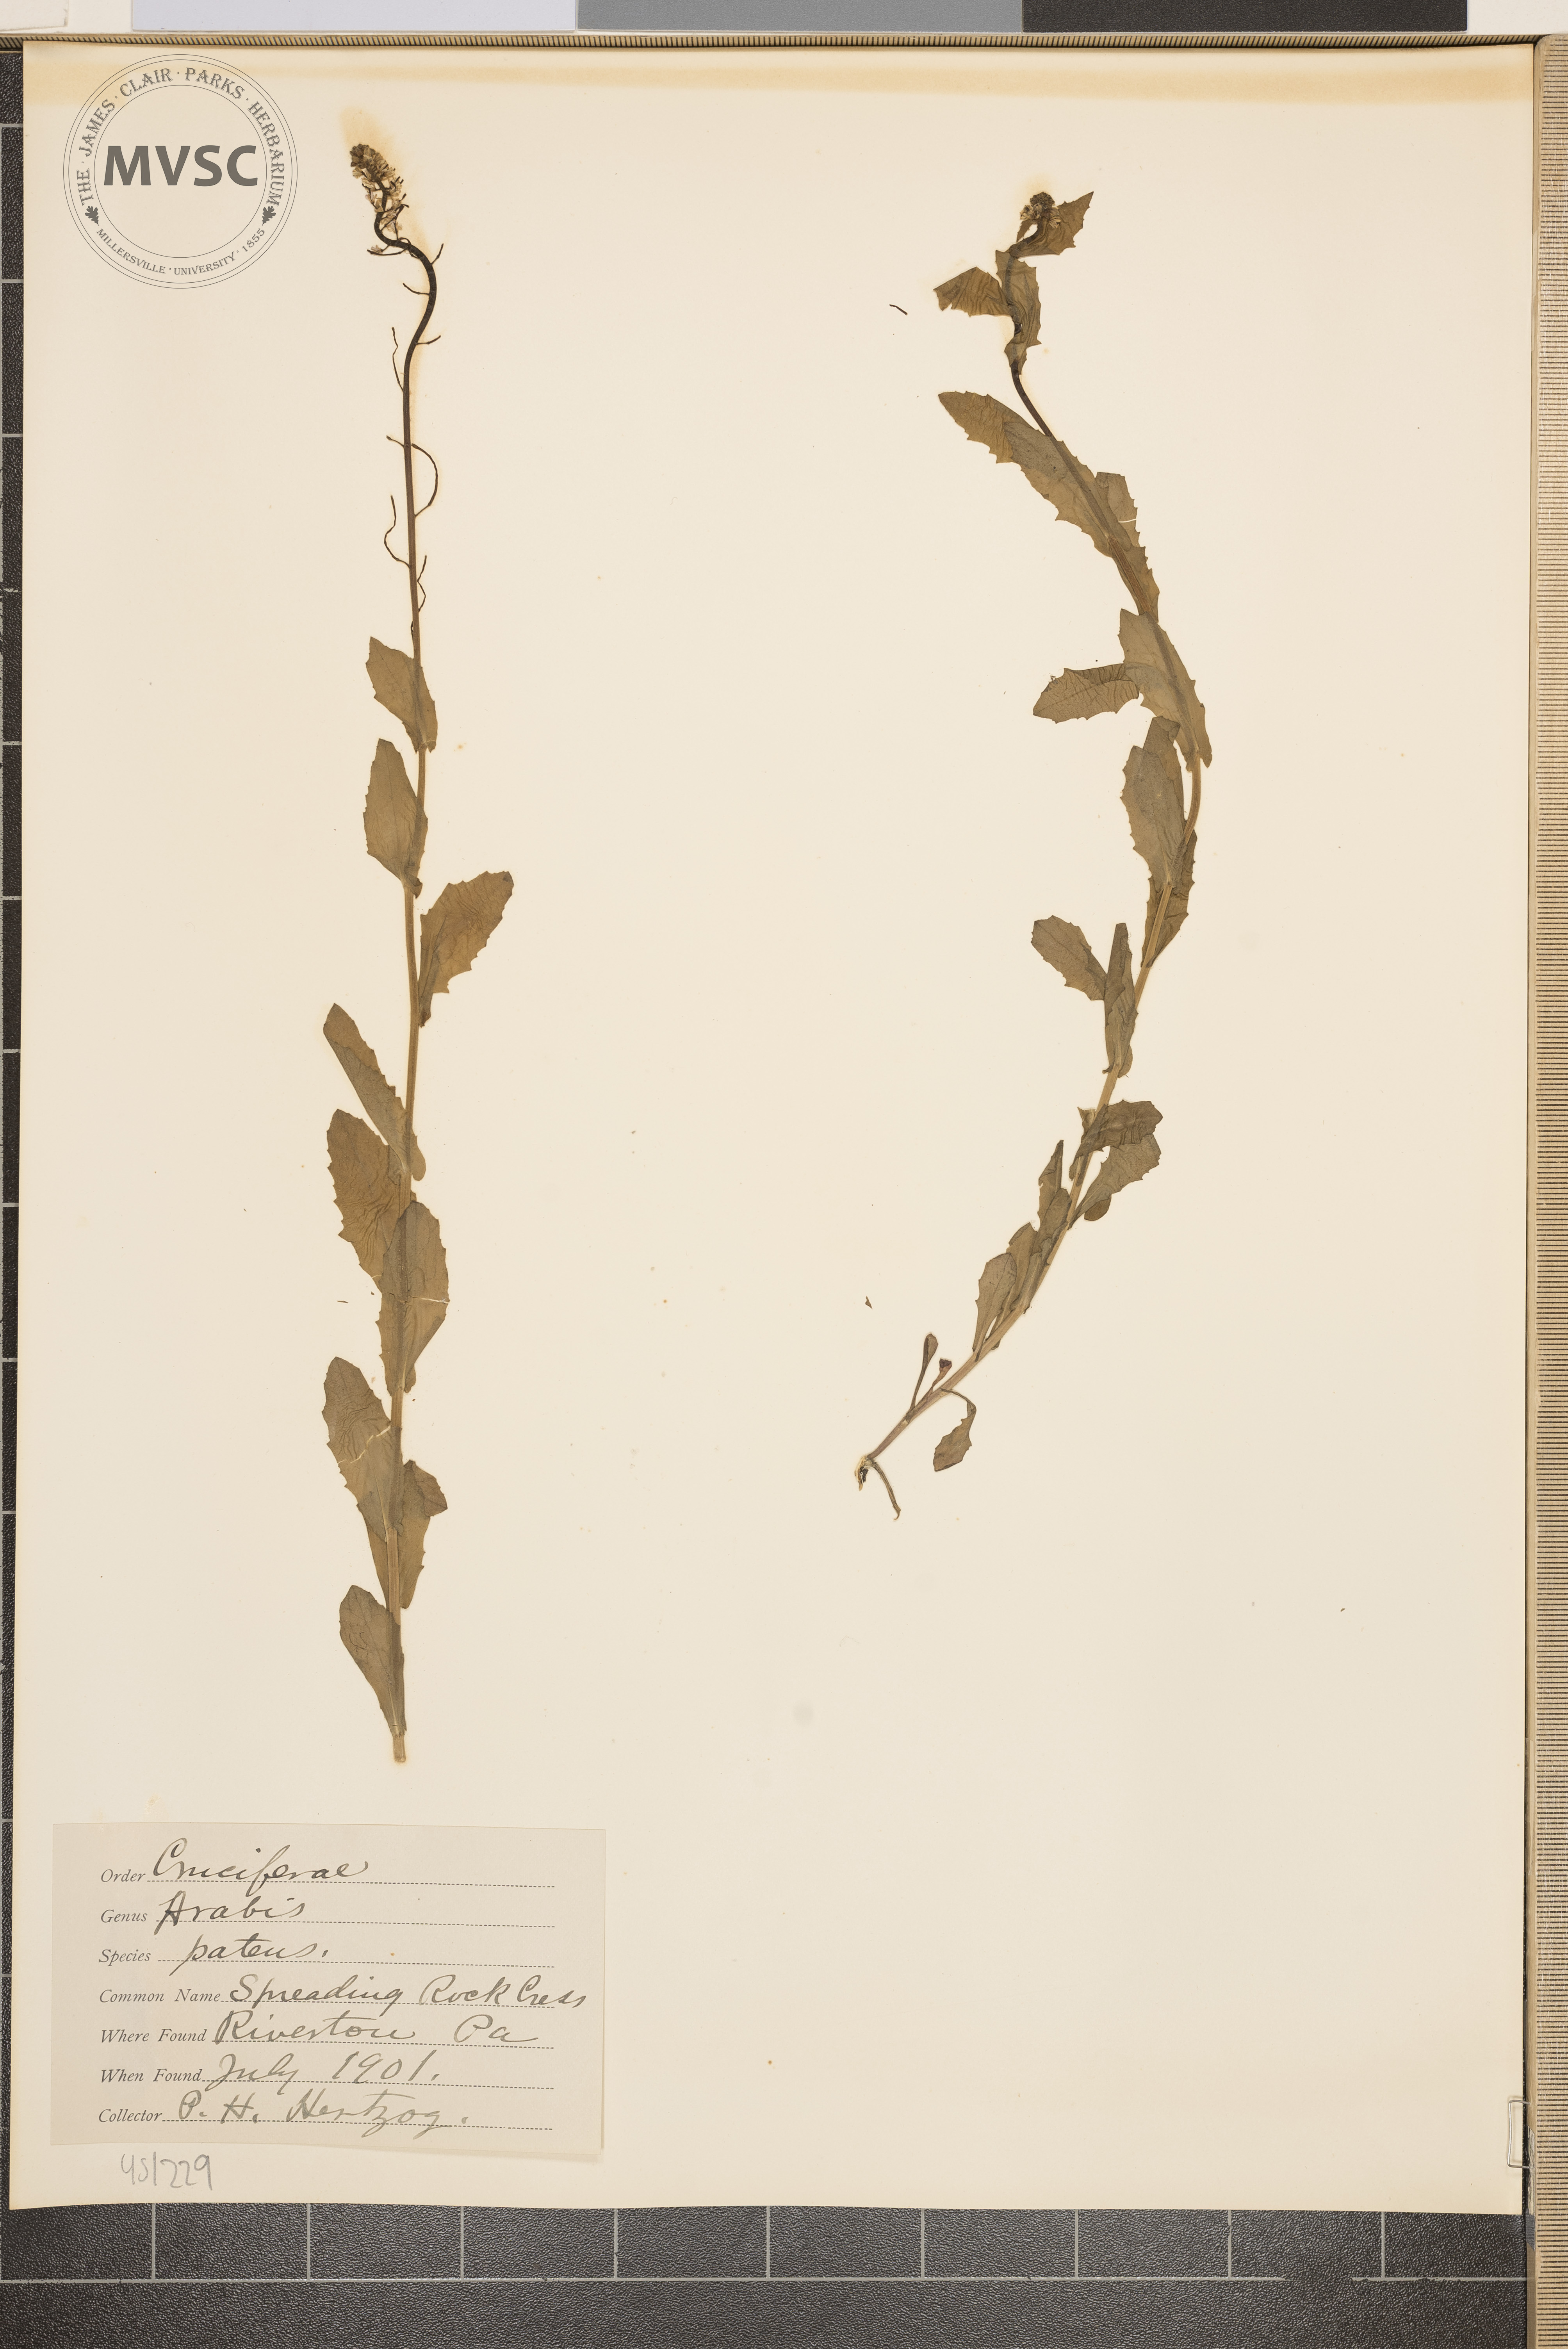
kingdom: Plantae
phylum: Tracheophyta
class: Magnoliopsida
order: Brassicales
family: Brassicaceae
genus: Arabis
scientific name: Arabis patens
